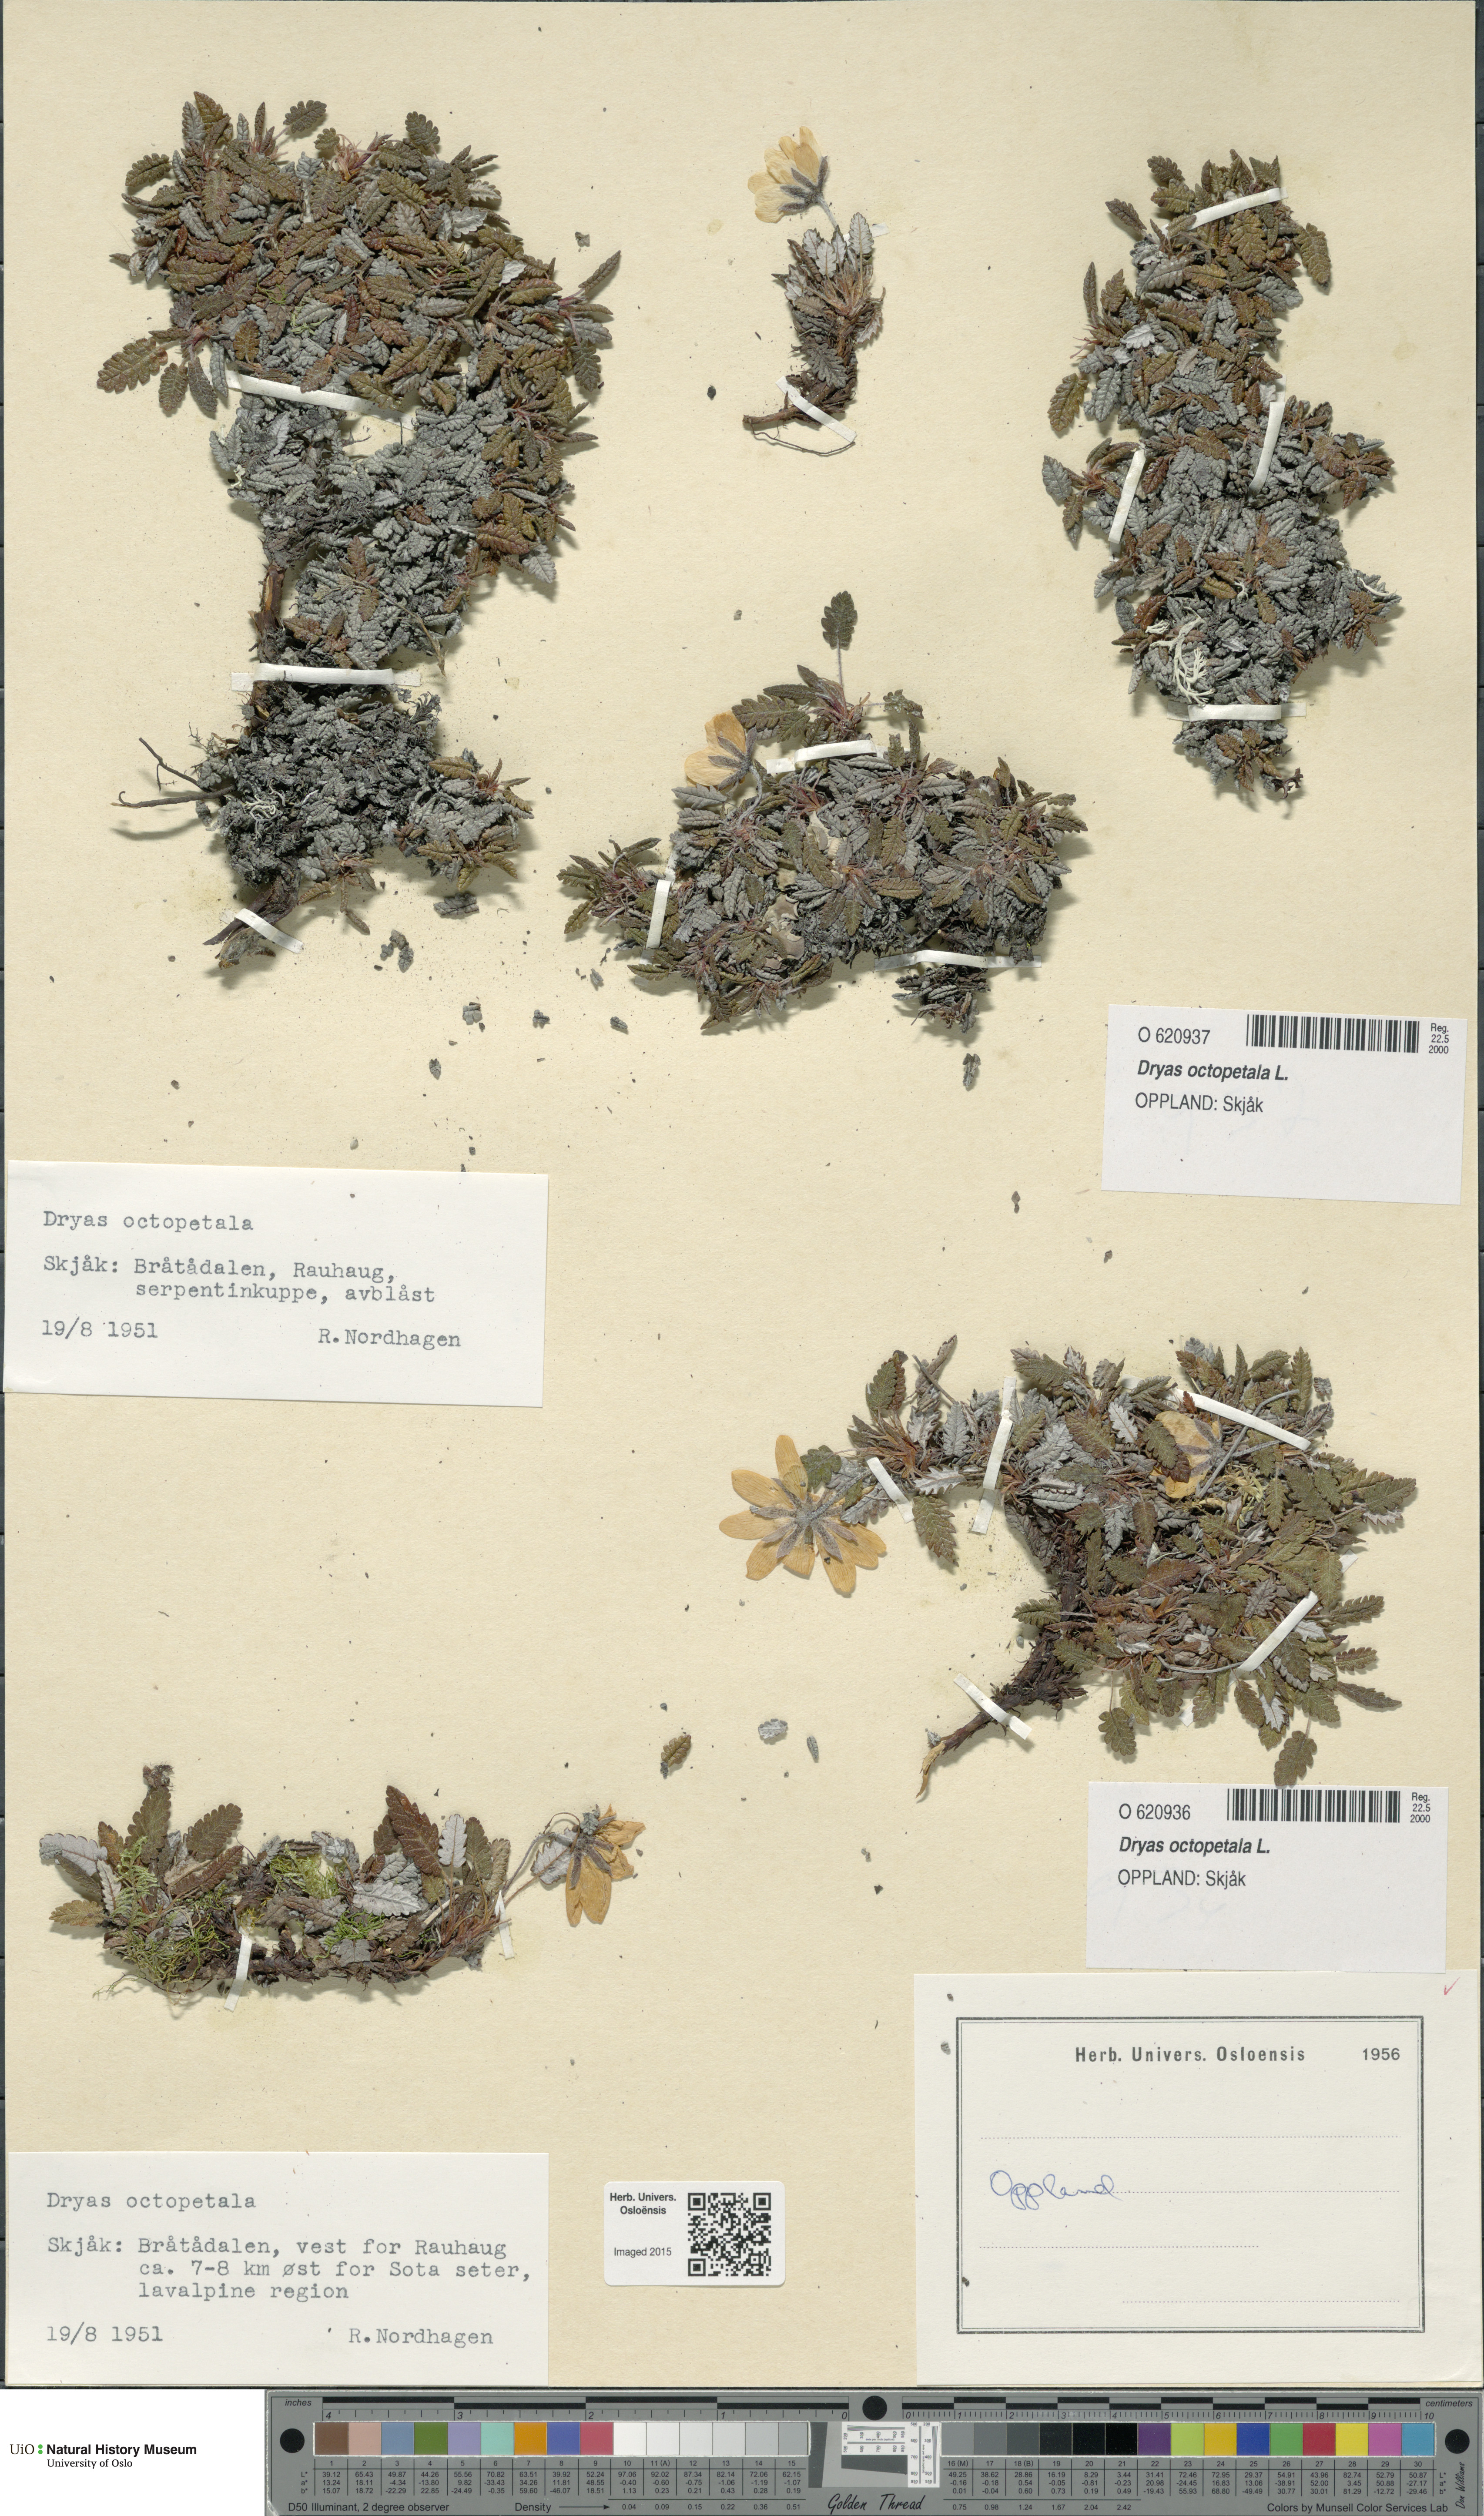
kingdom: Plantae
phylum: Tracheophyta
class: Magnoliopsida
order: Rosales
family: Rosaceae
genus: Dryas
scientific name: Dryas octopetala
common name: Eight-petal mountain-avens
